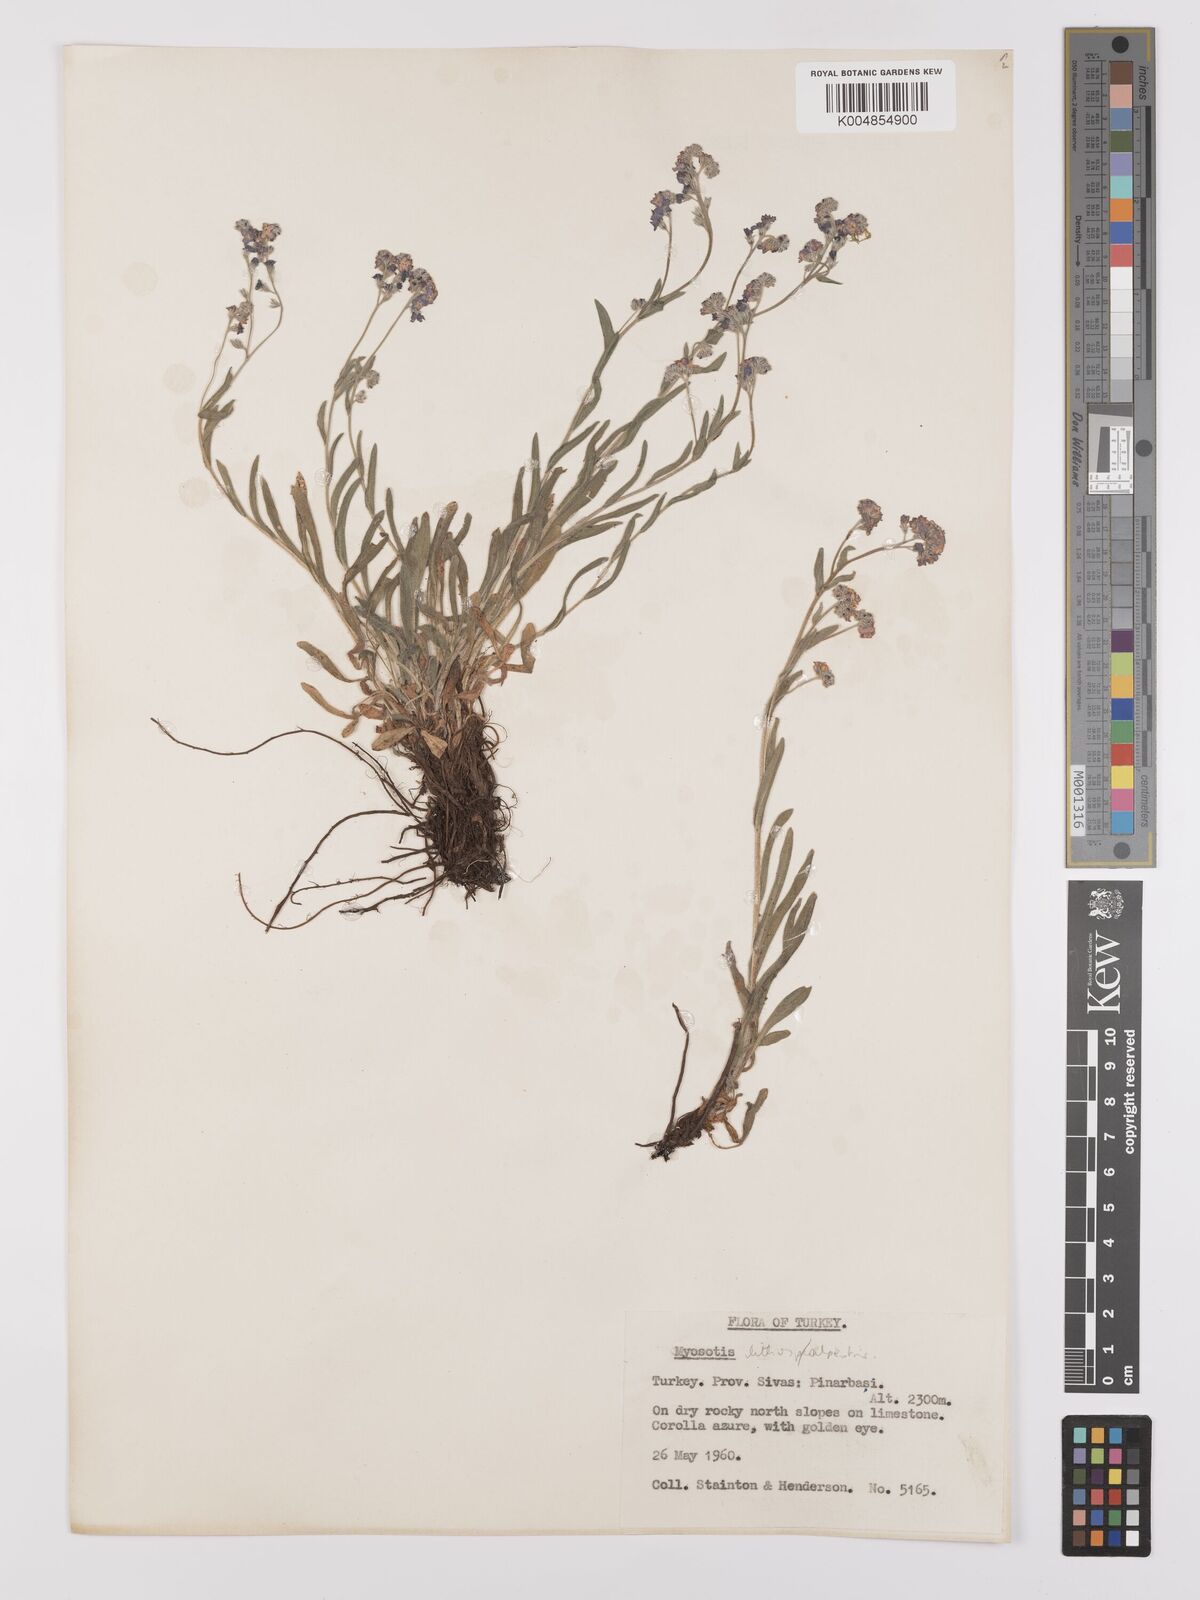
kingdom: Plantae
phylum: Tracheophyta
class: Magnoliopsida
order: Boraginales
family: Boraginaceae
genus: Myosotis
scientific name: Myosotis
